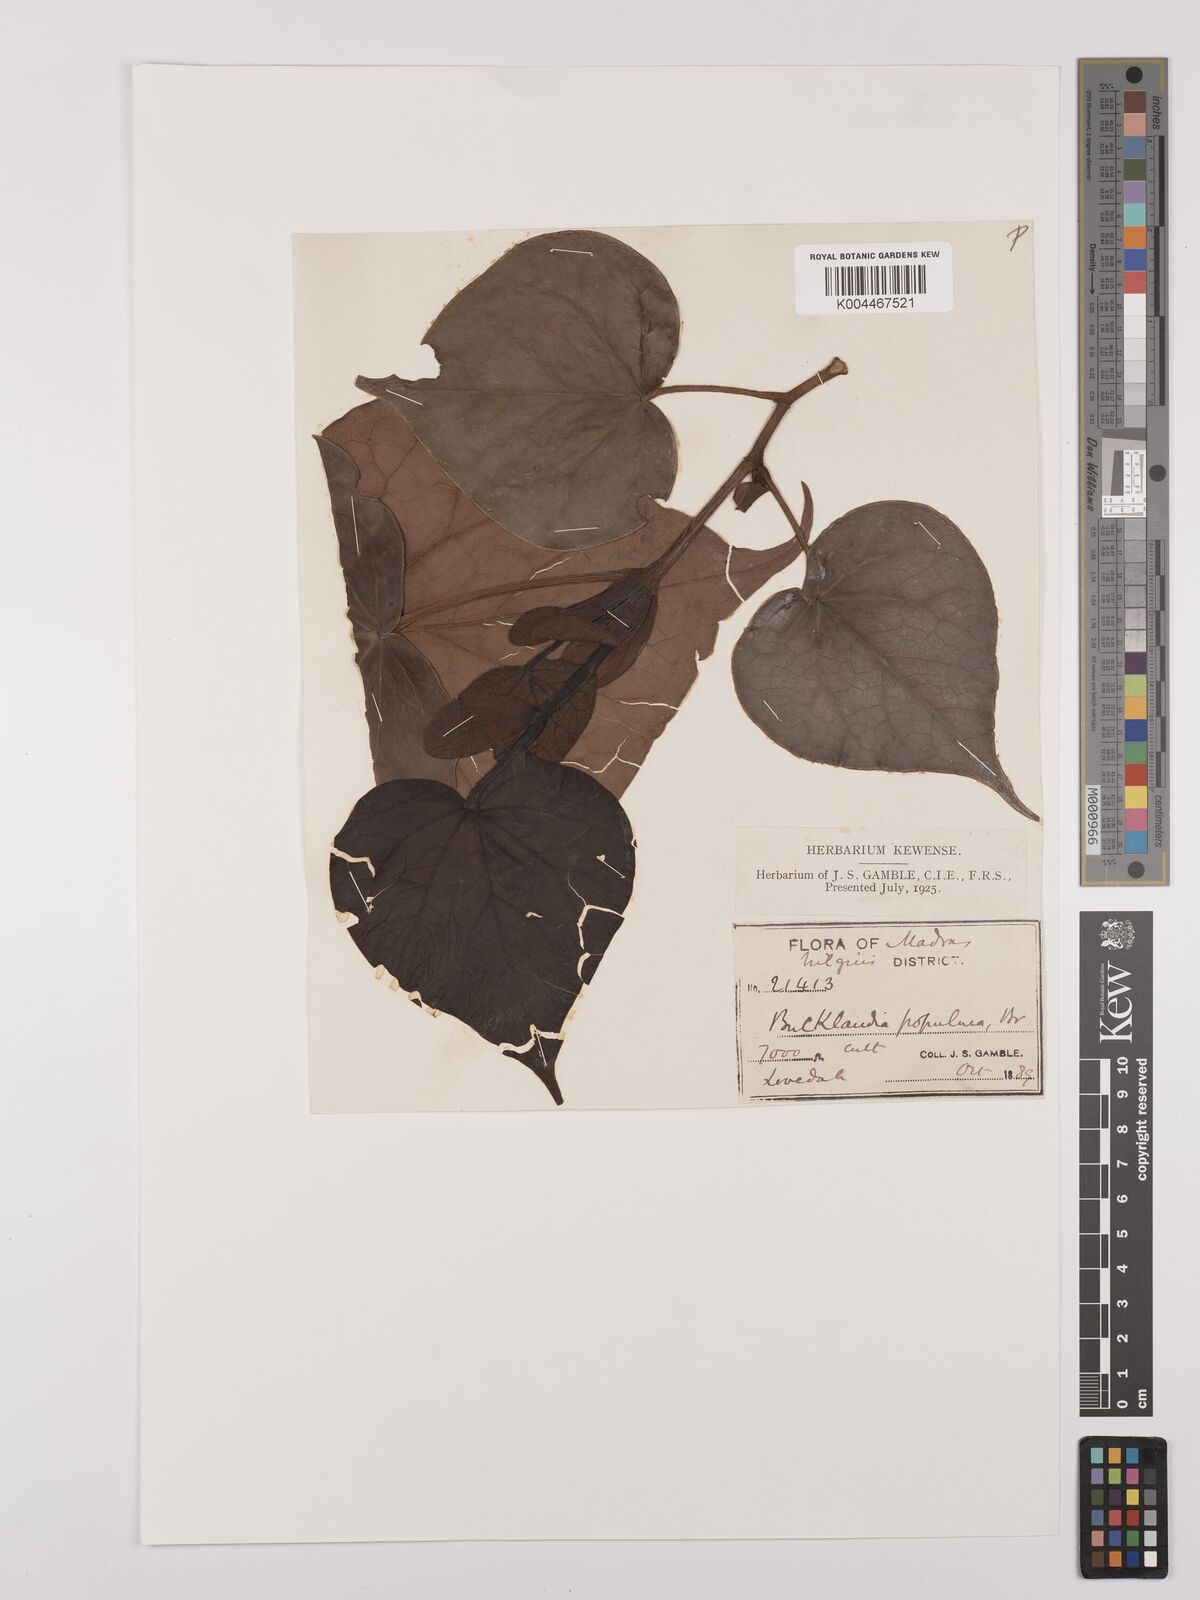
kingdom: Plantae
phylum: Tracheophyta
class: Magnoliopsida
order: Saxifragales
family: Hamamelidaceae
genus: Exbucklandia
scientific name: Exbucklandia populnea
